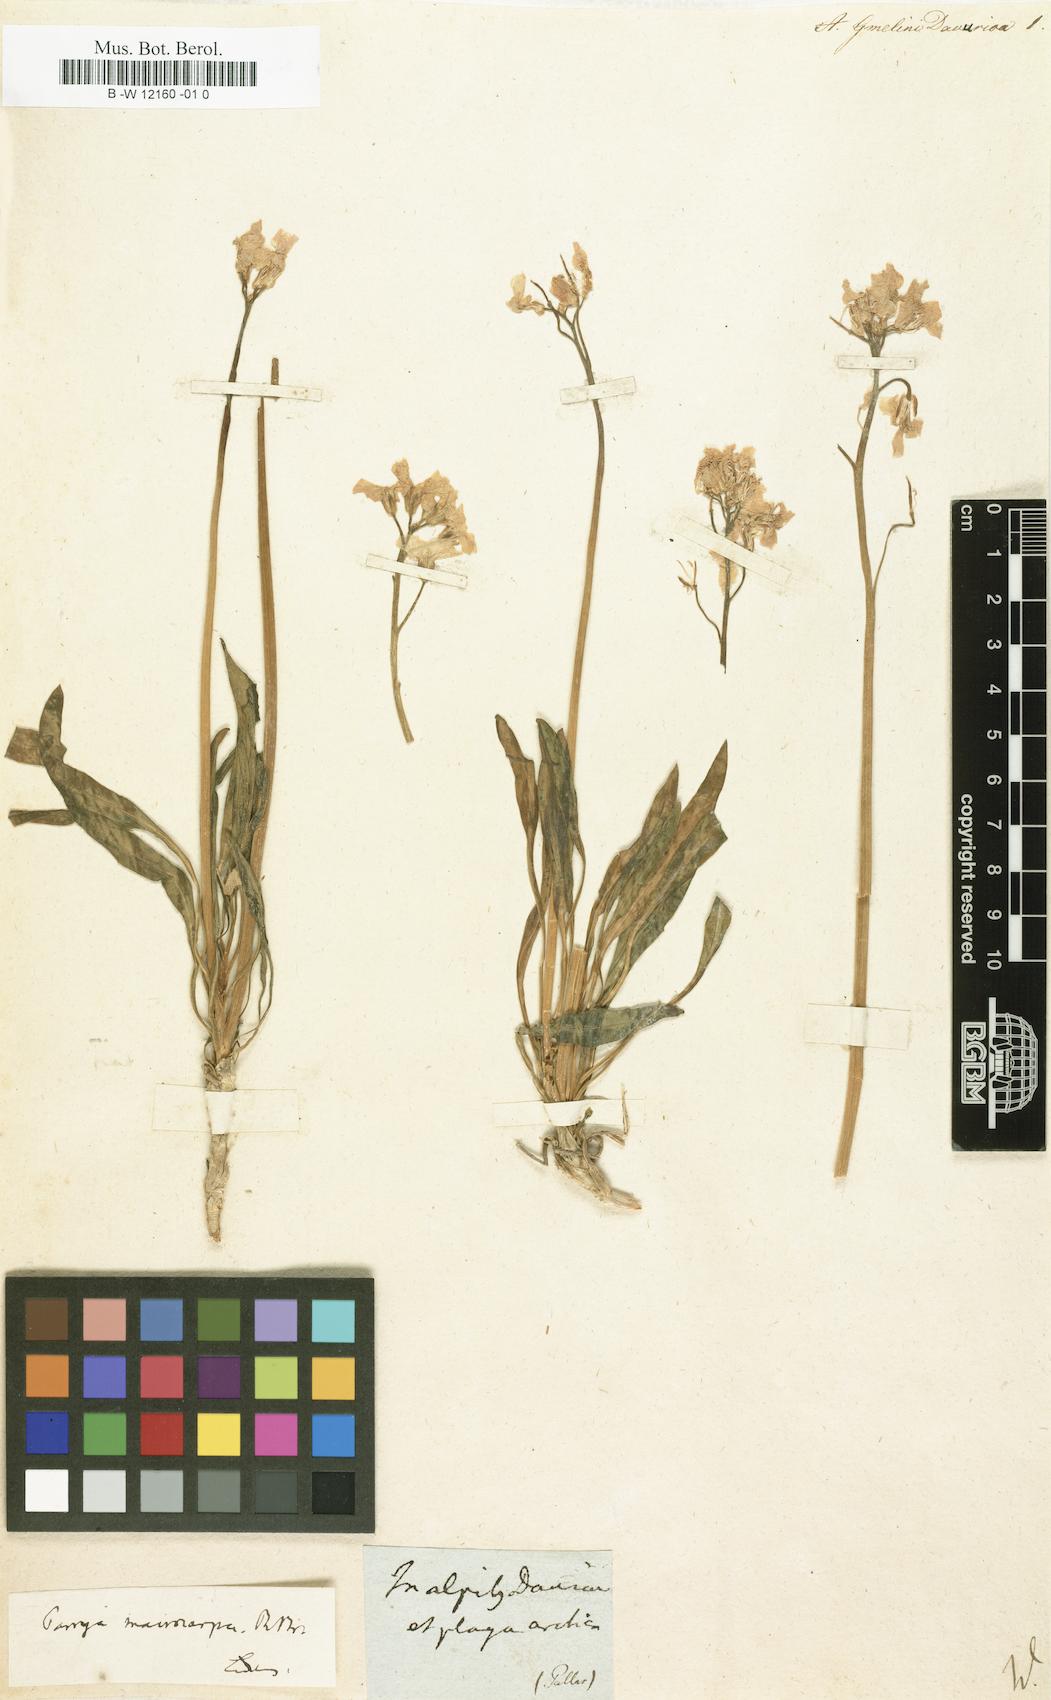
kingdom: Plantae
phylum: Tracheophyta
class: Magnoliopsida
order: Brassicales
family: Brassicaceae
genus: Parrya
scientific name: Parrya nudicaulis
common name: Naked-stemmed false wallflower
